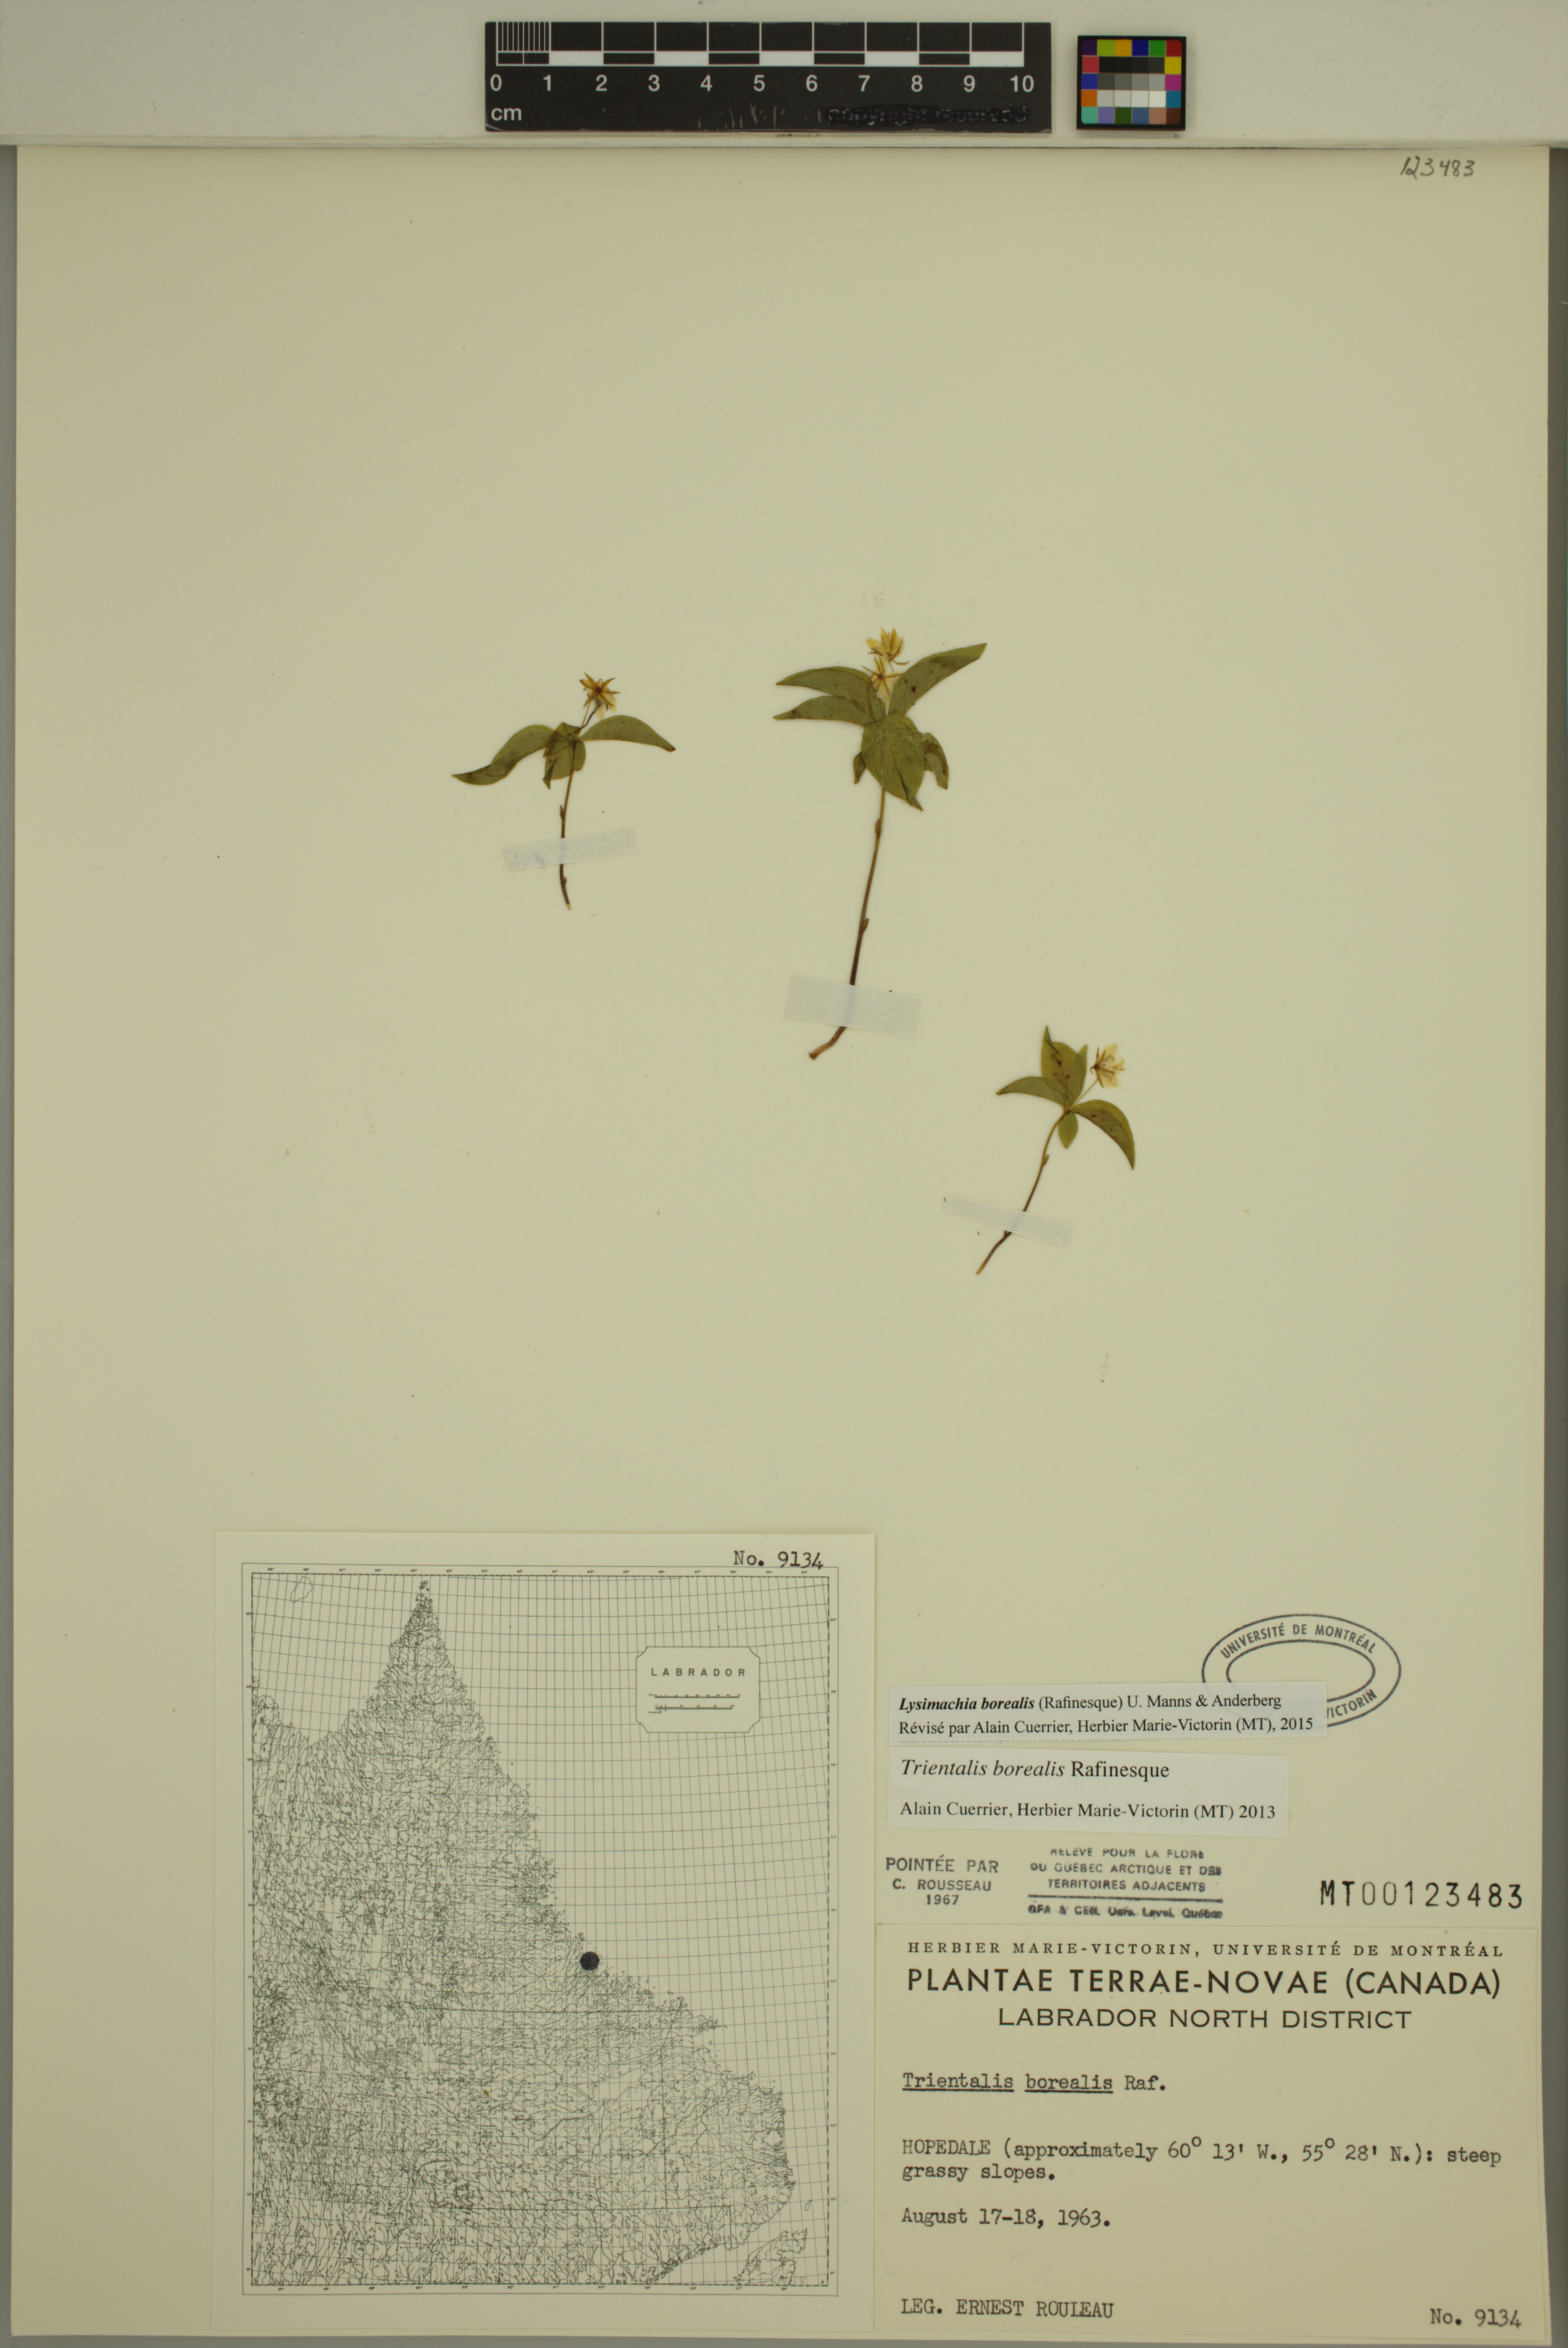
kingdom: Plantae
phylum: Tracheophyta
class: Magnoliopsida
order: Ericales
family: Primulaceae
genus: Lysimachia
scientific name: Lysimachia borealis
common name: American starflower
